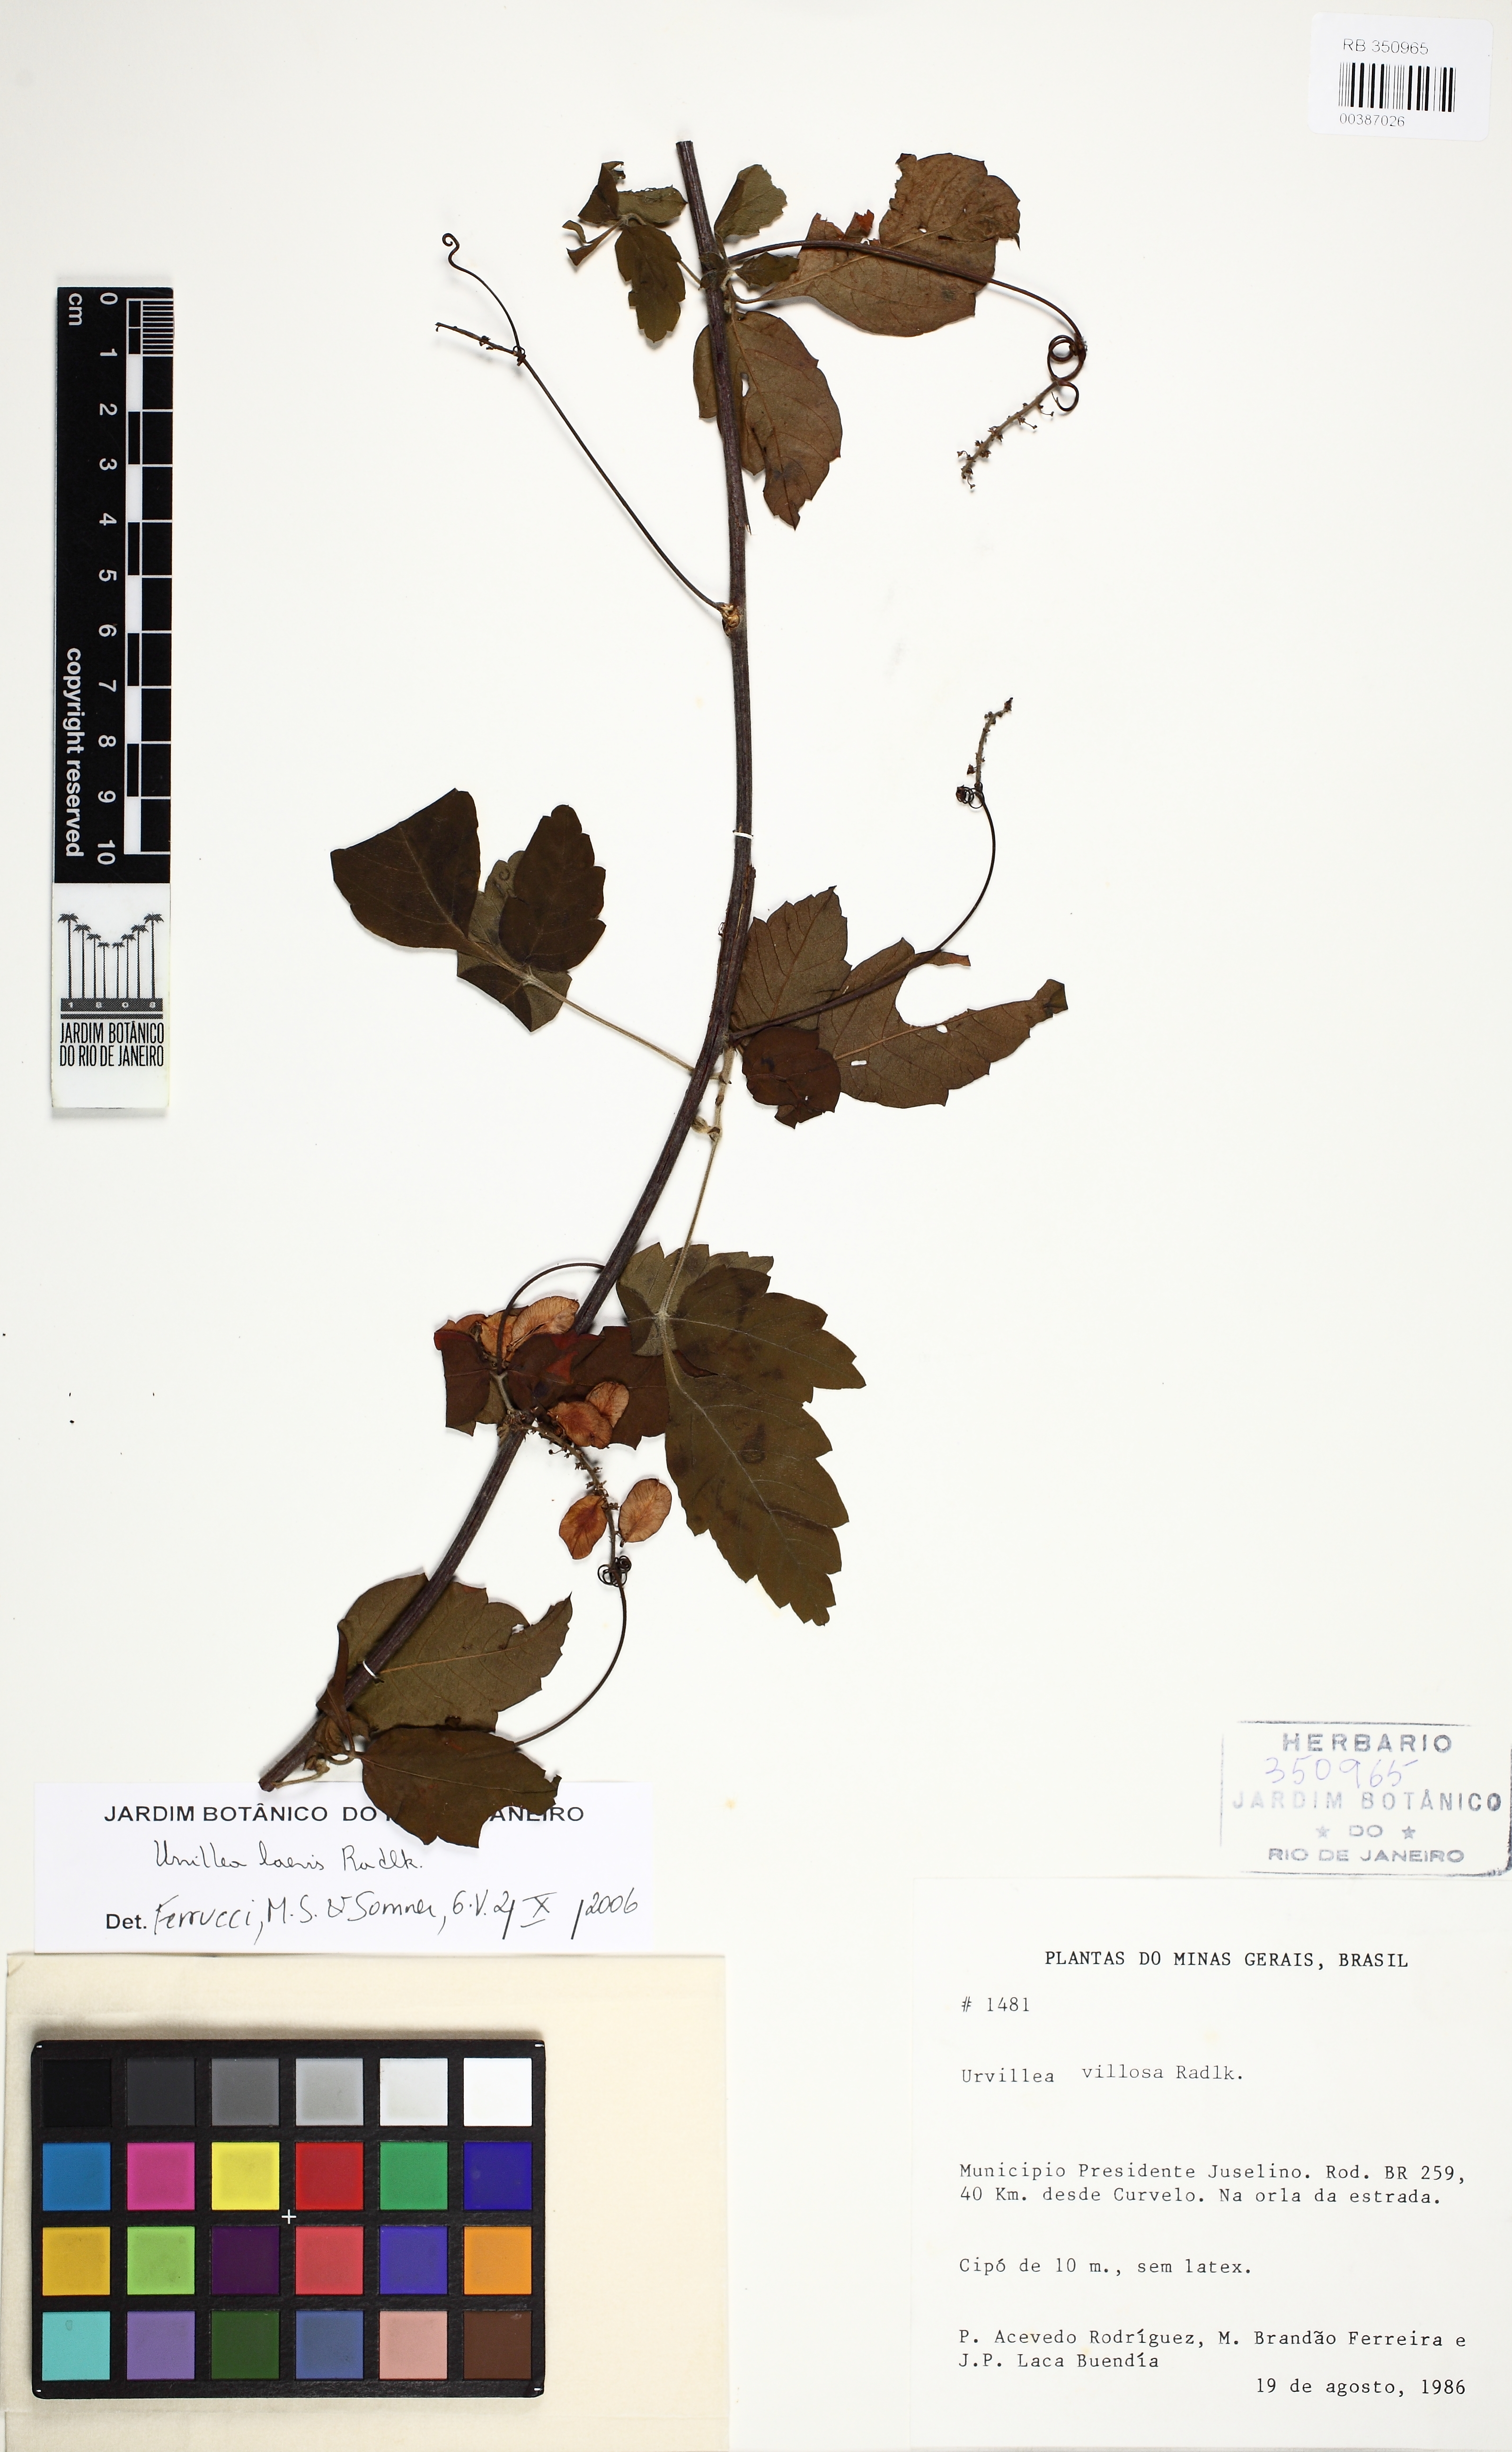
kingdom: Plantae
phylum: Tracheophyta
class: Magnoliopsida
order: Sapindales
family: Sapindaceae
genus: Urvillea
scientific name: Urvillea laevis
